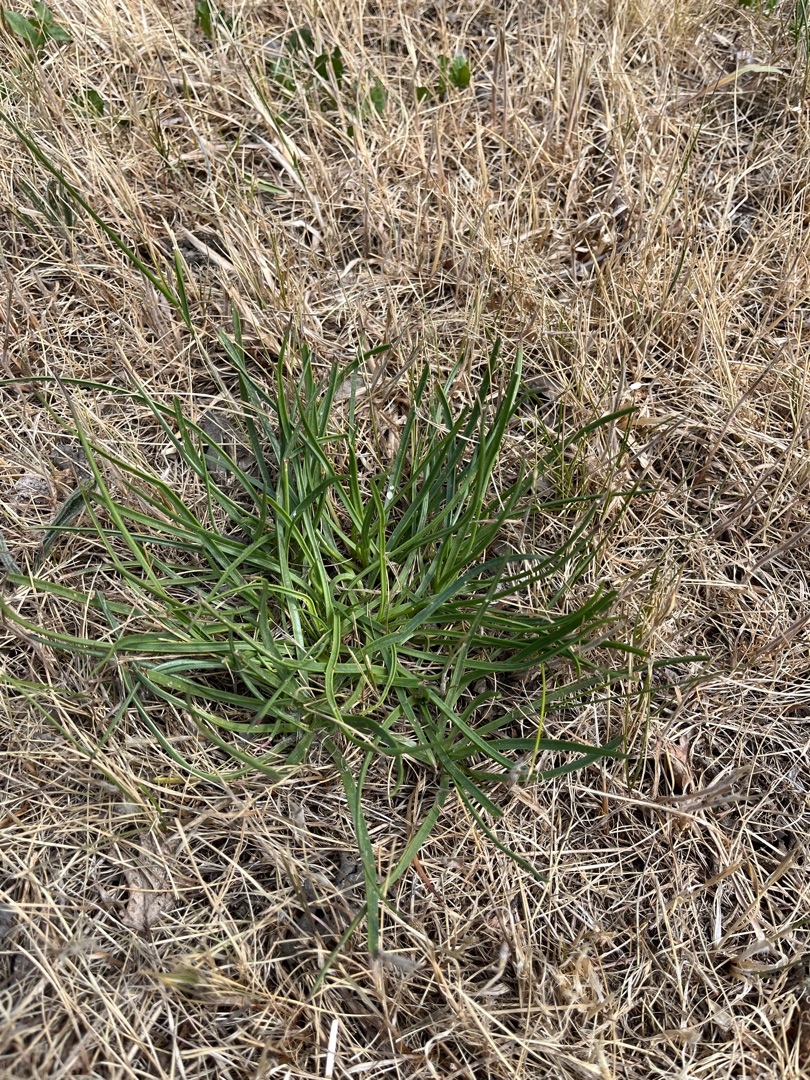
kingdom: Plantae
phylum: Tracheophyta
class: Magnoliopsida
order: Lamiales
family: Plantaginaceae
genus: Plantago
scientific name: Plantago maritima
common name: Strand-vejbred
